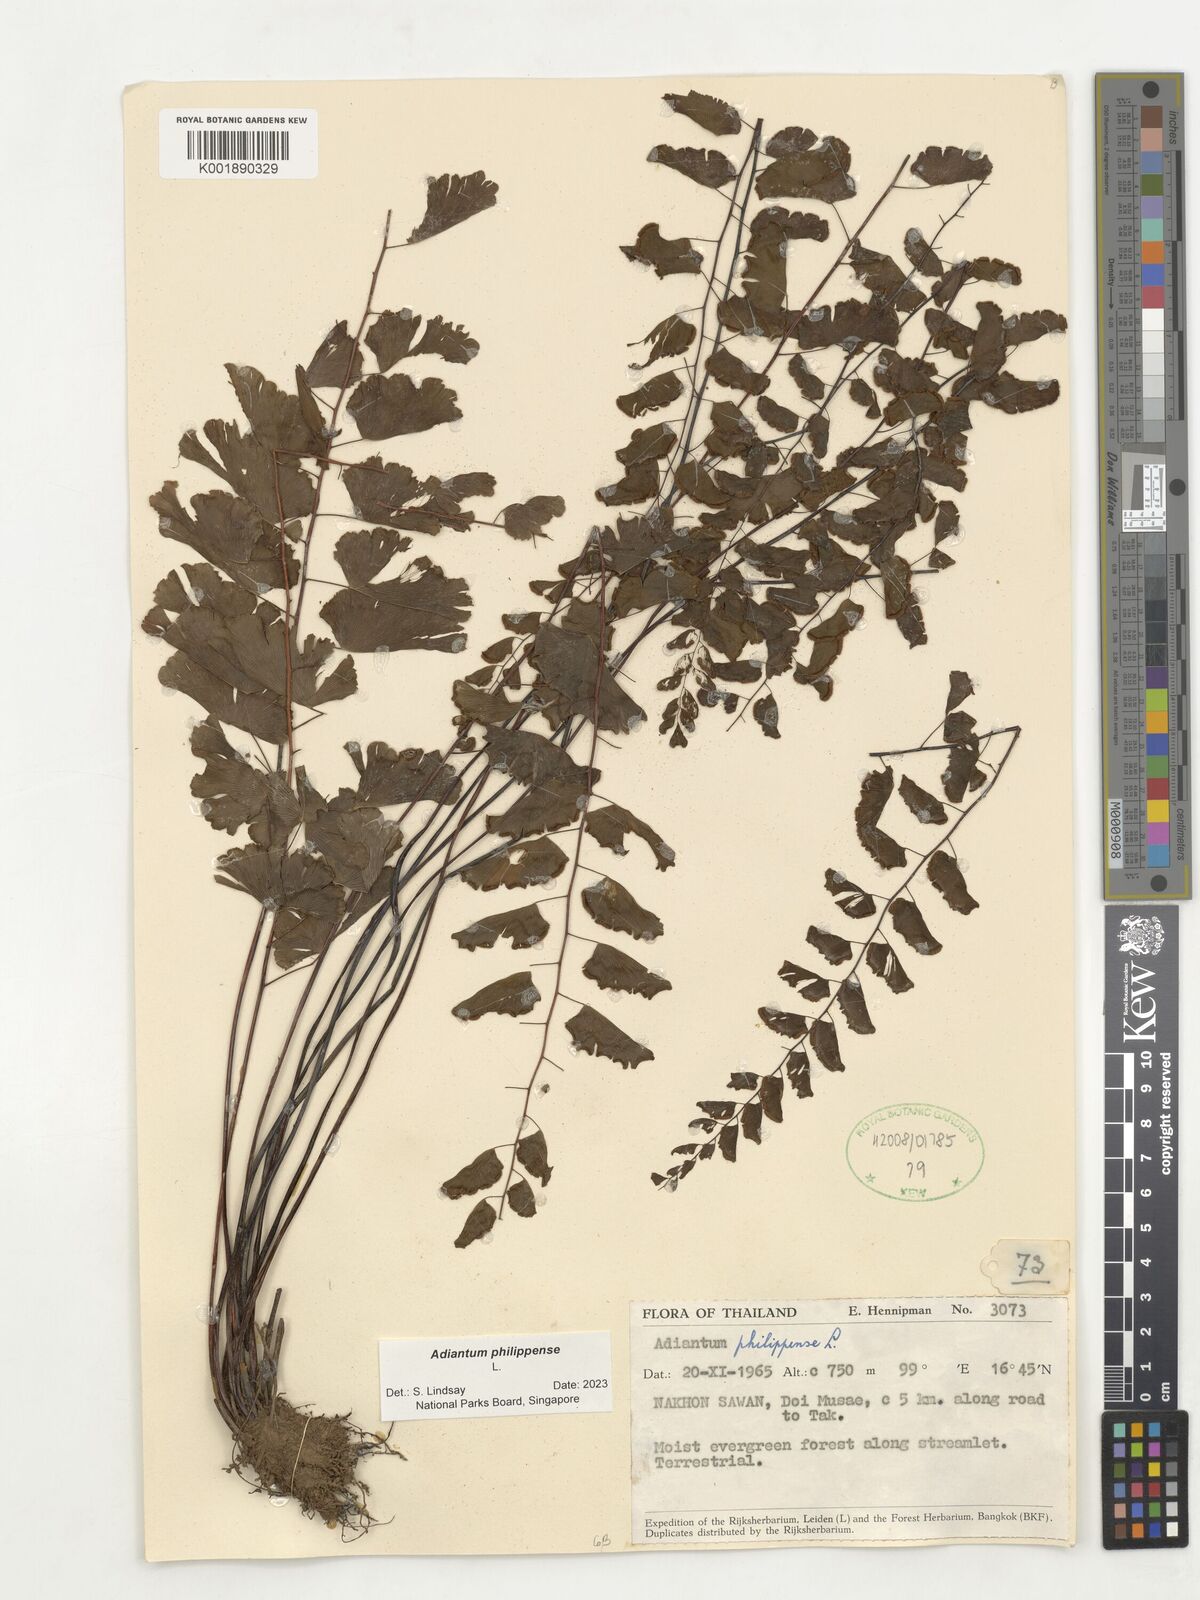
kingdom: Plantae
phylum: Tracheophyta
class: Polypodiopsida
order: Polypodiales
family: Pteridaceae
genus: Adiantum
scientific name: Adiantum philippense
